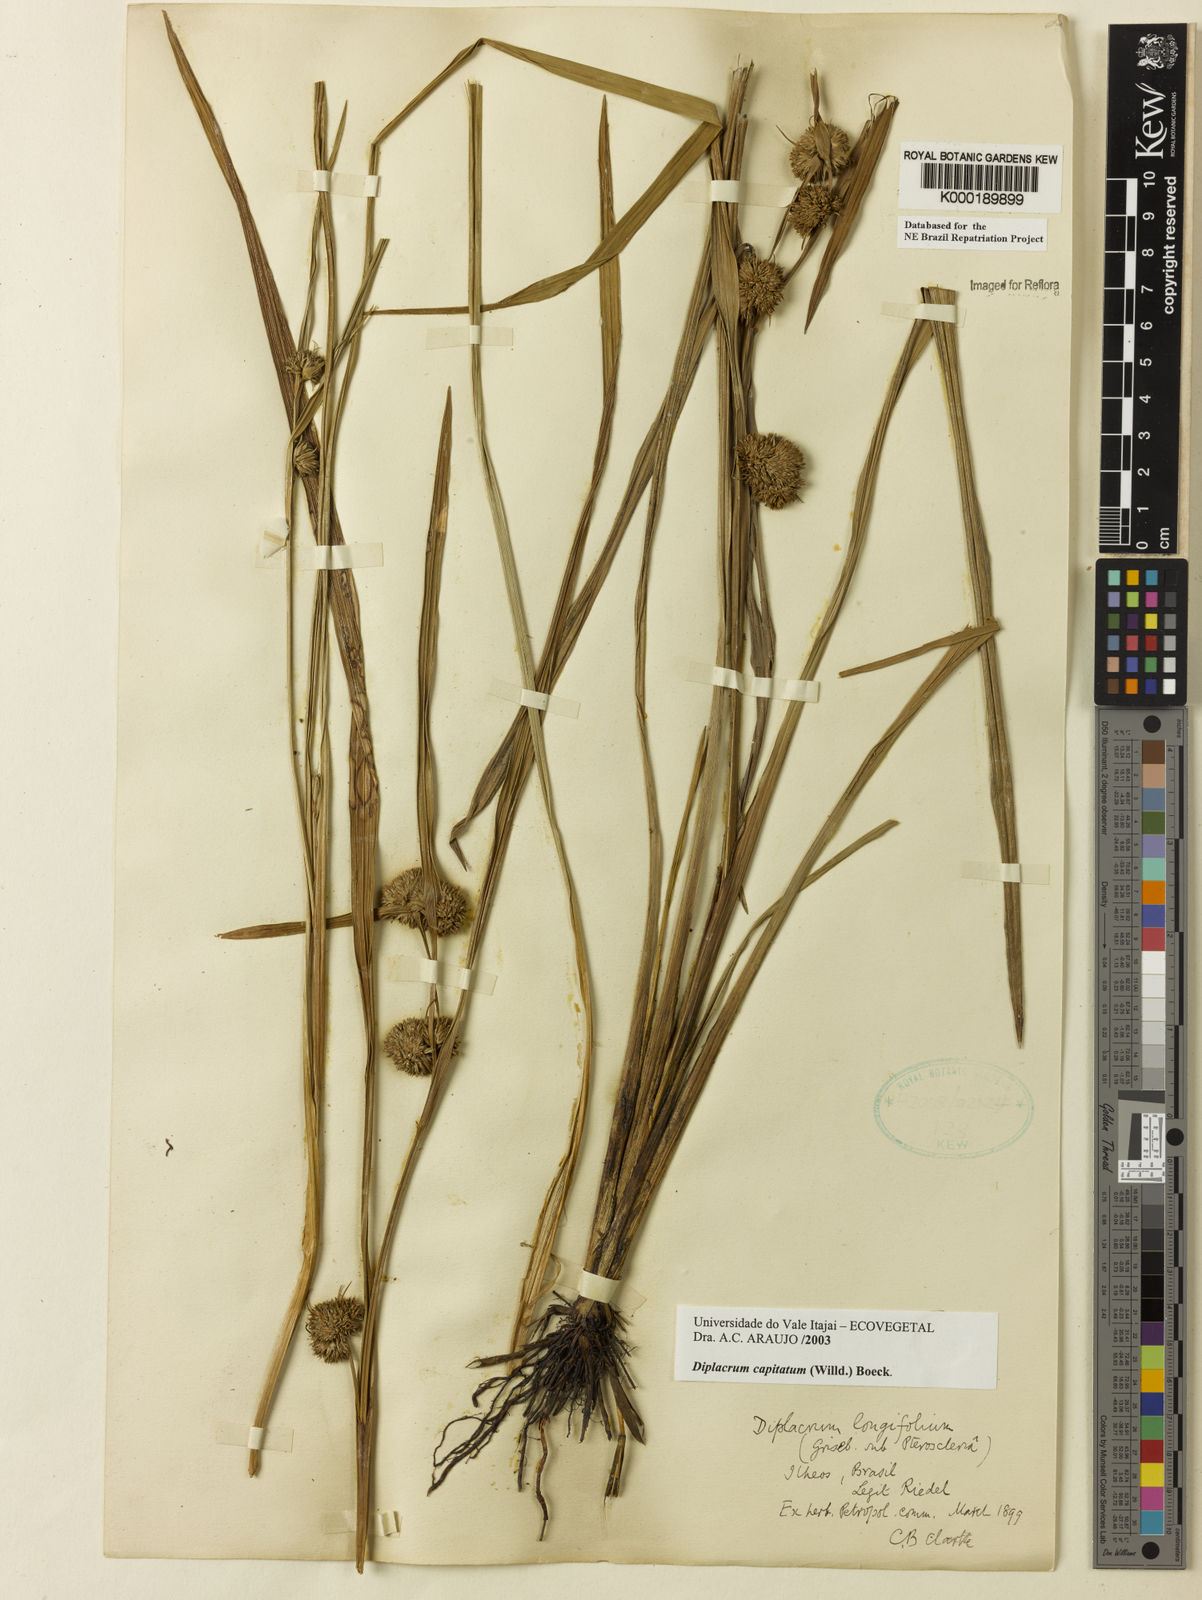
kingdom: Plantae
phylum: Tracheophyta
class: Liliopsida
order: Poales
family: Cyperaceae
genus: Diplacrum
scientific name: Diplacrum capitatum
